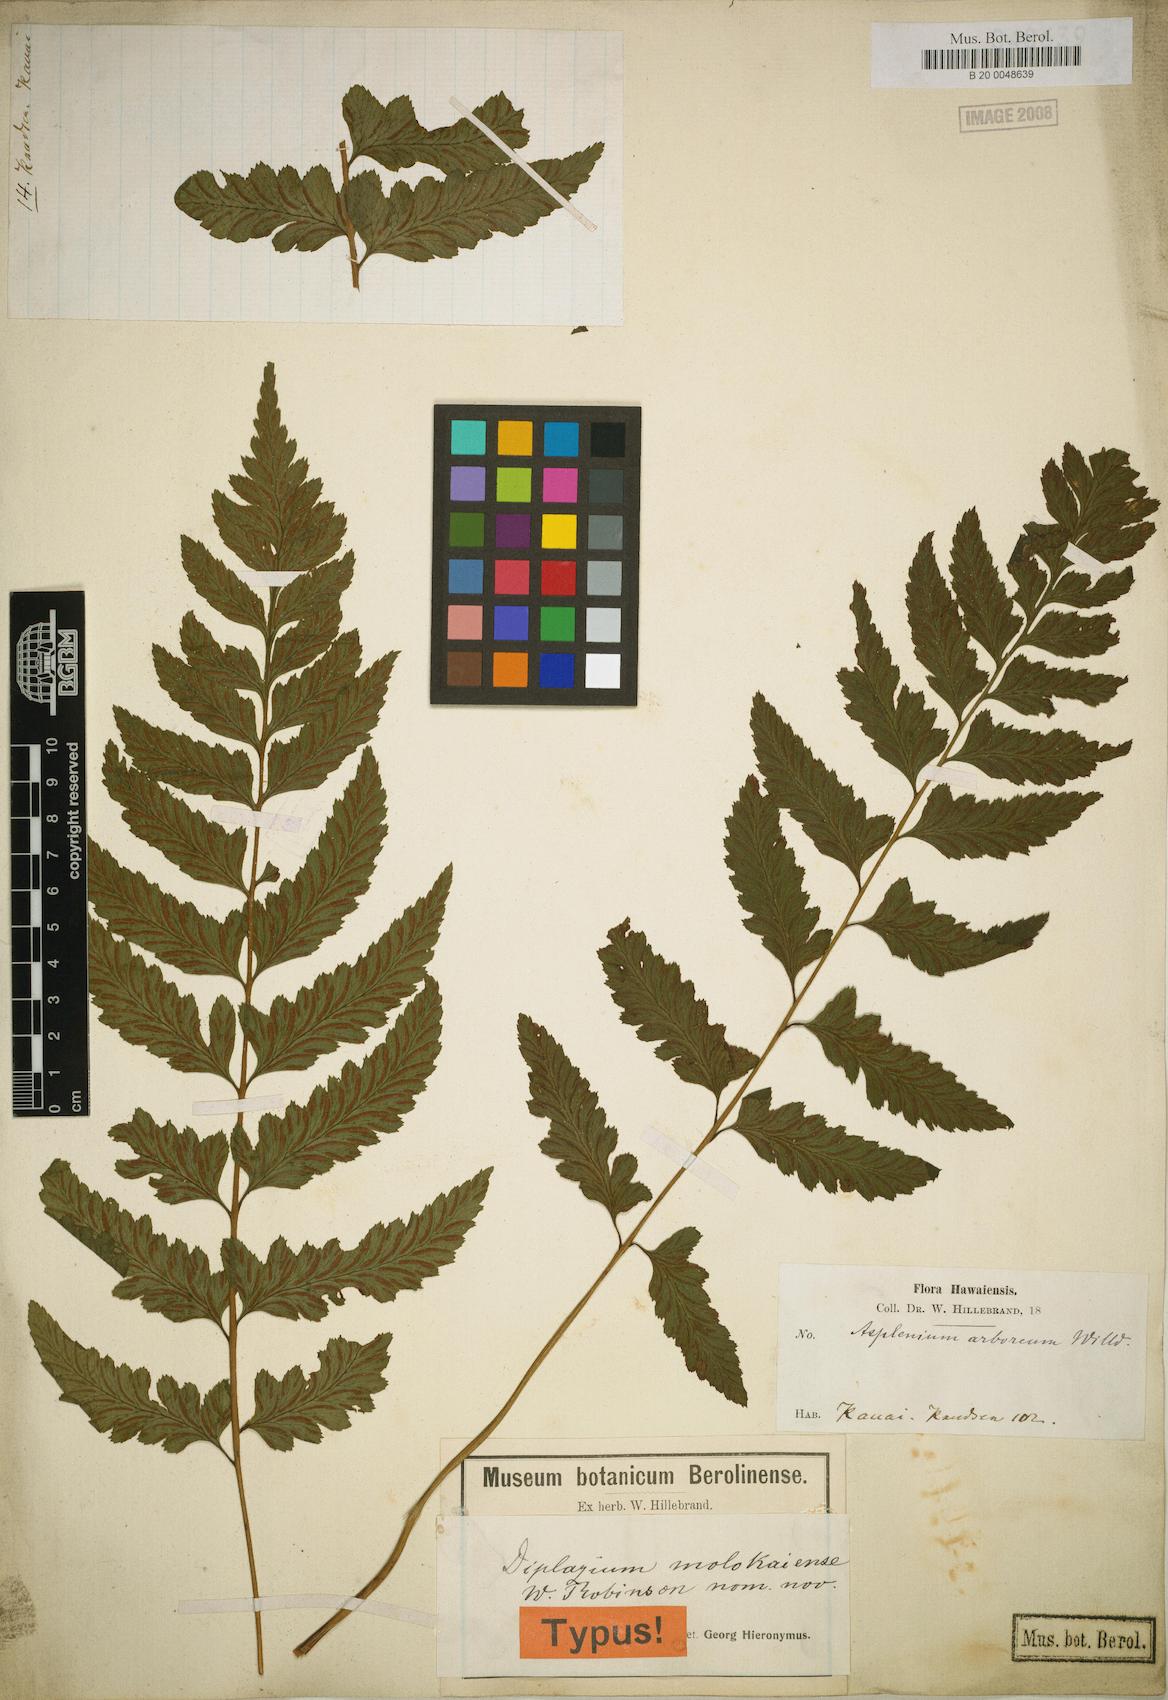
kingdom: Plantae
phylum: Tracheophyta
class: Polypodiopsida
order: Polypodiales
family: Athyriaceae
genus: Diplazium
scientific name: Diplazium molokaiense
